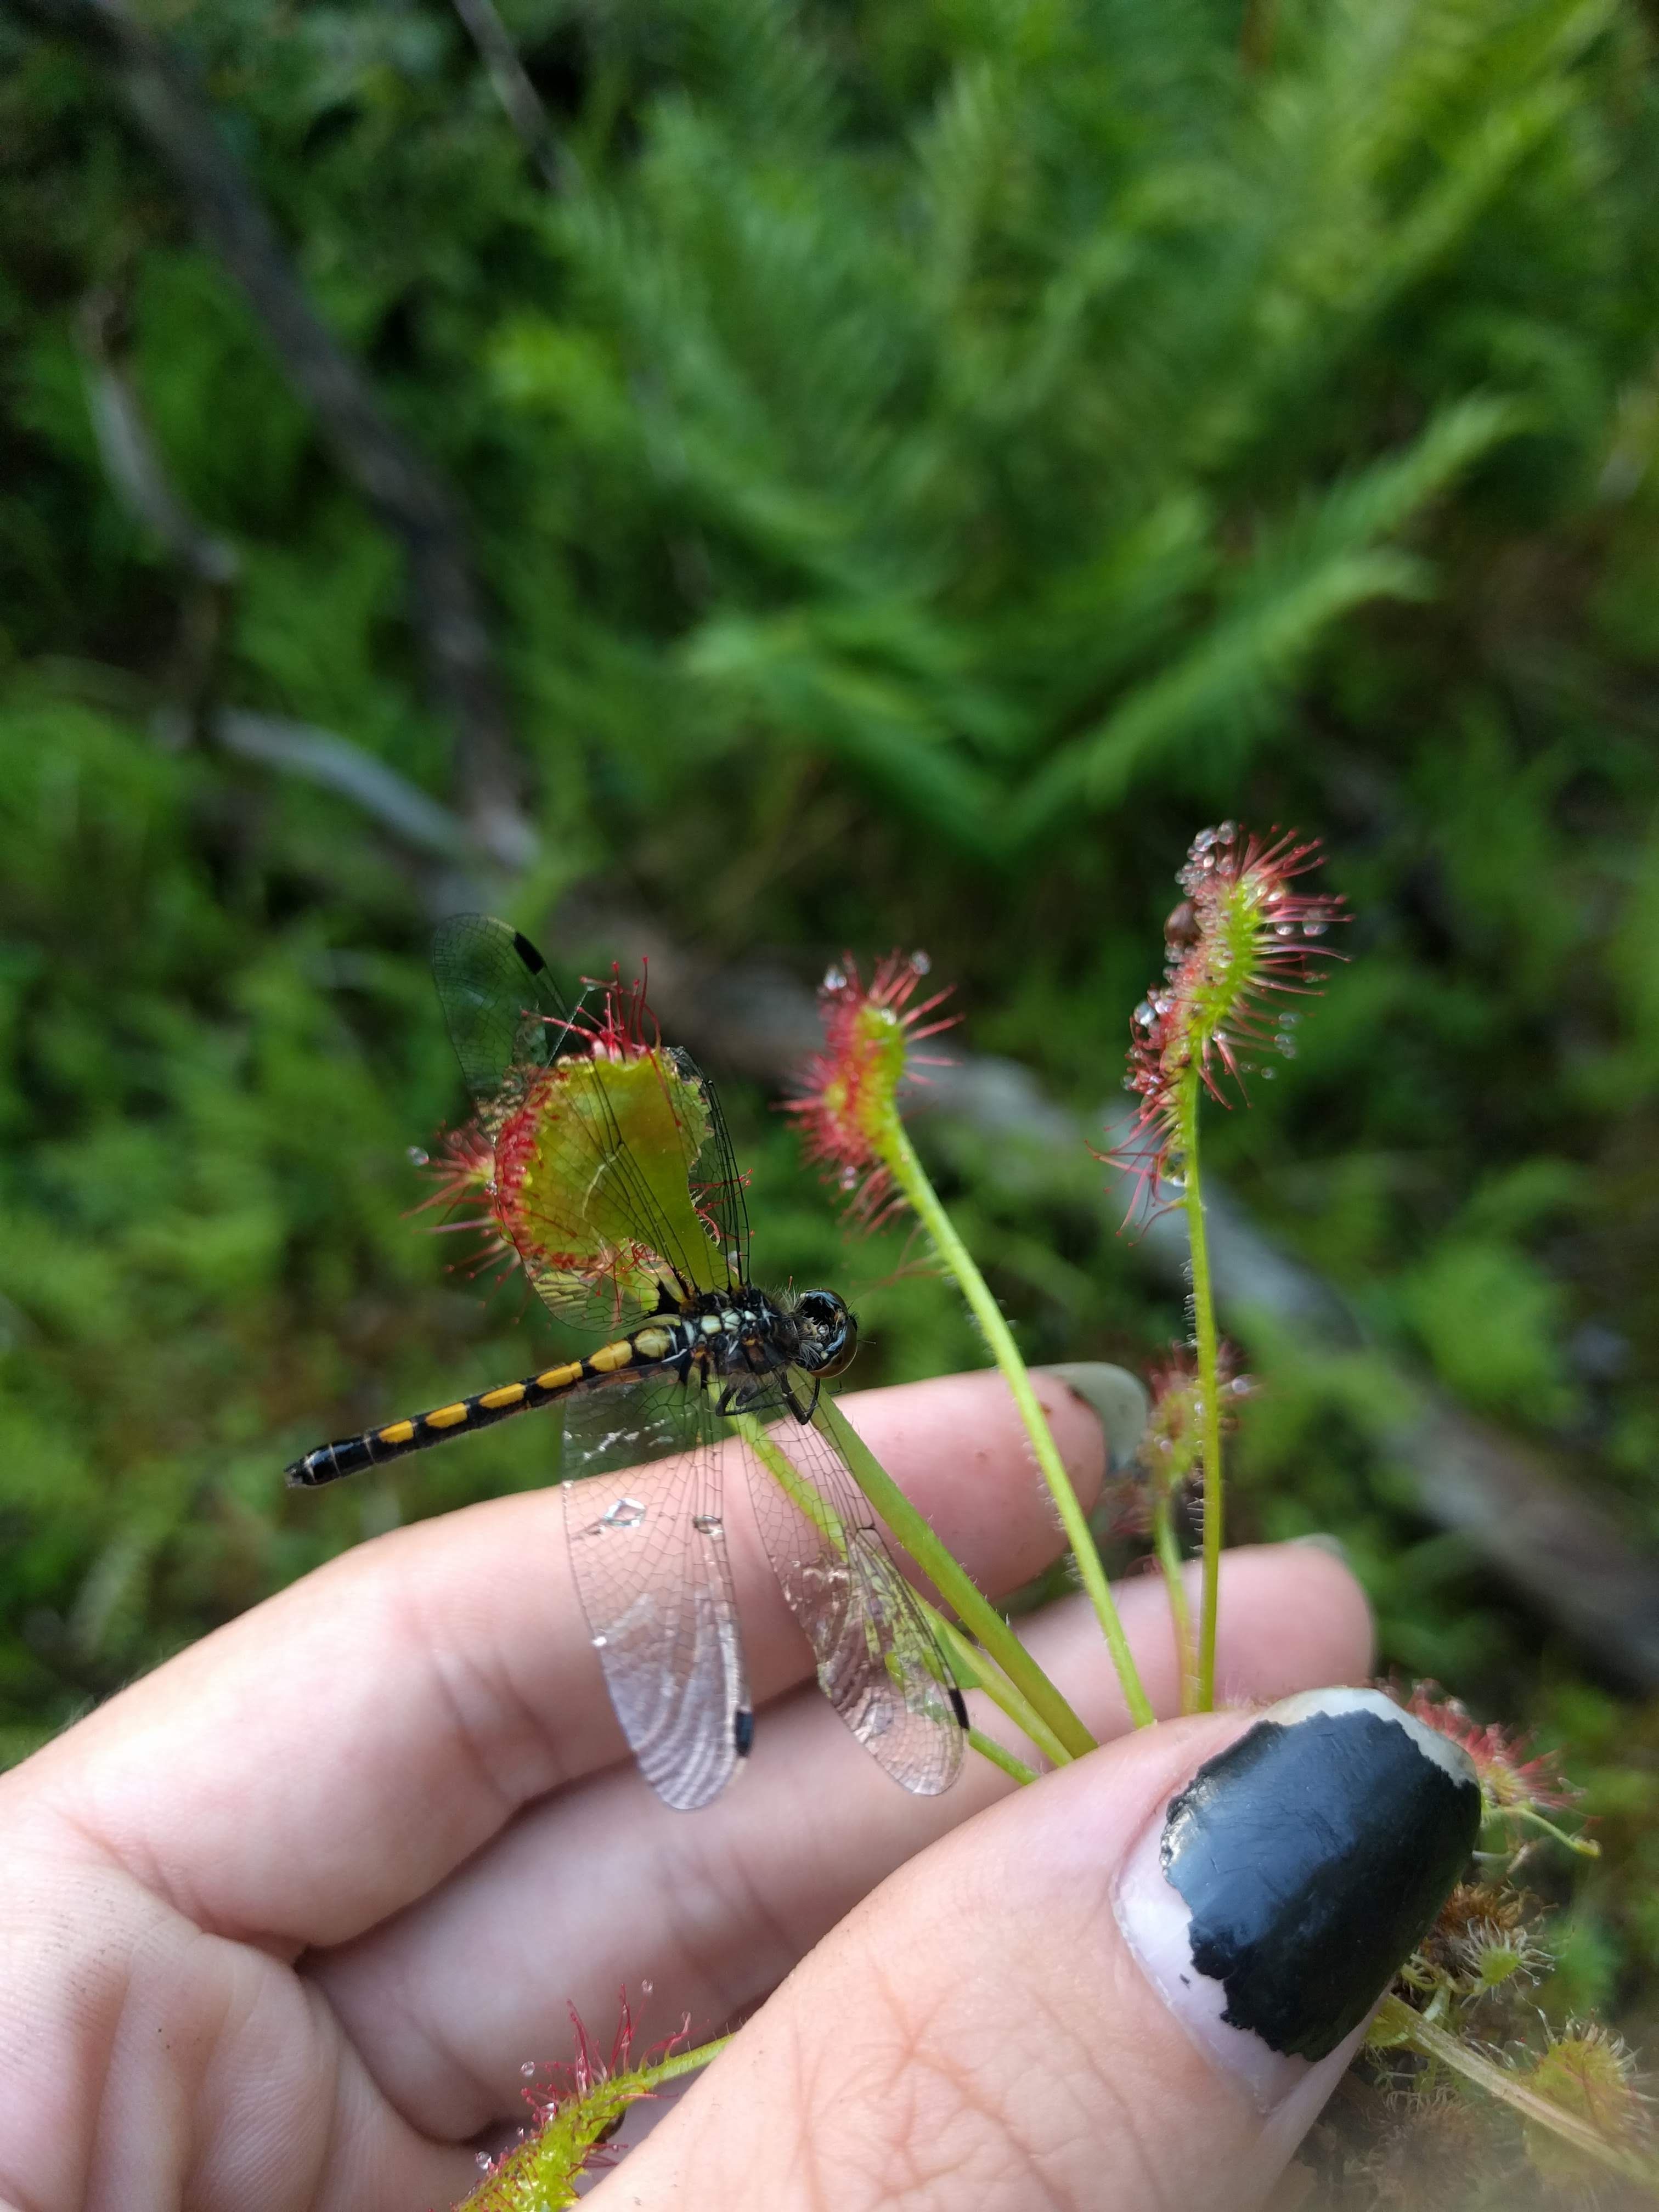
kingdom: Plantae
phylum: Tracheophyta
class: Magnoliopsida
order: Caryophyllales
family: Droseraceae
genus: Drosera
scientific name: Drosera rotundifolia
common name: Round-leaved sundew
